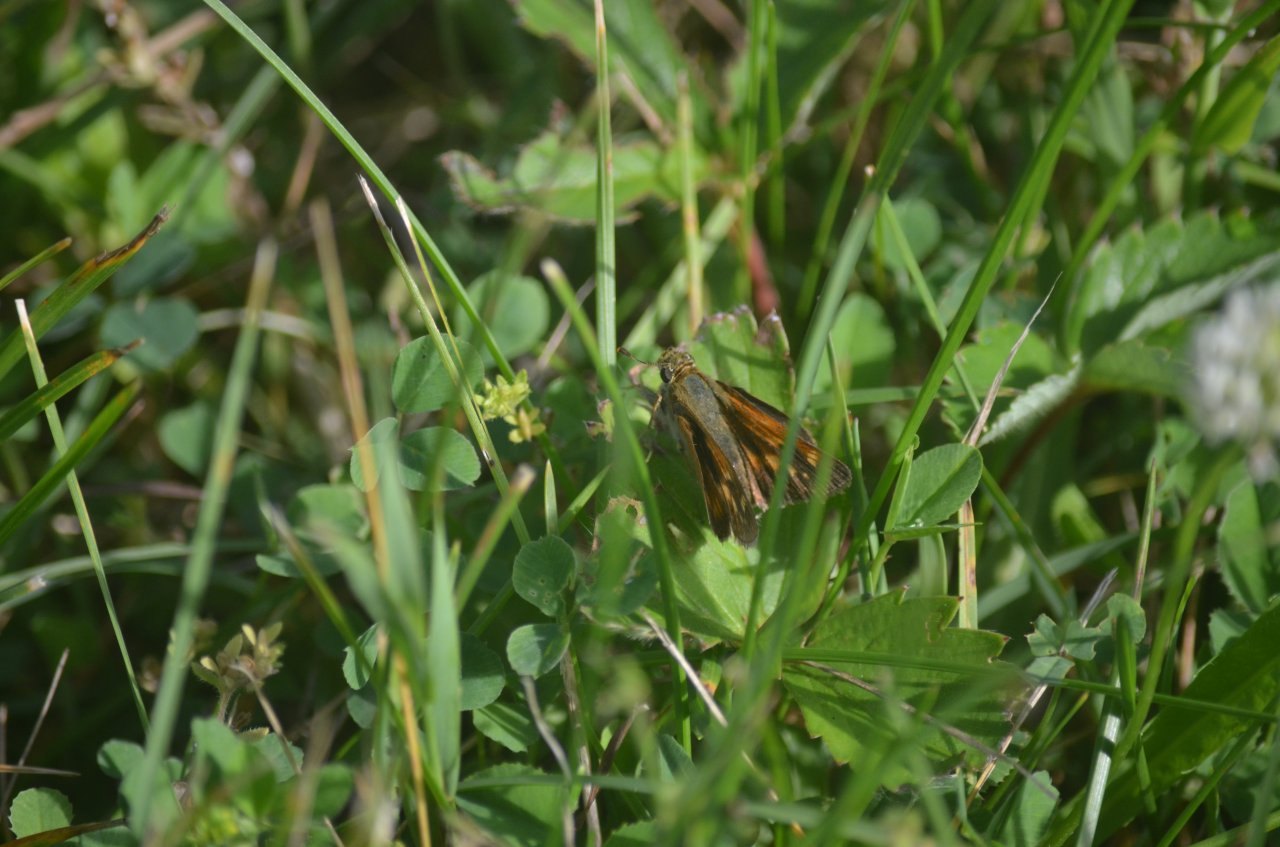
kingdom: Animalia
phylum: Arthropoda
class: Insecta
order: Lepidoptera
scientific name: Lepidoptera
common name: Butterflies
